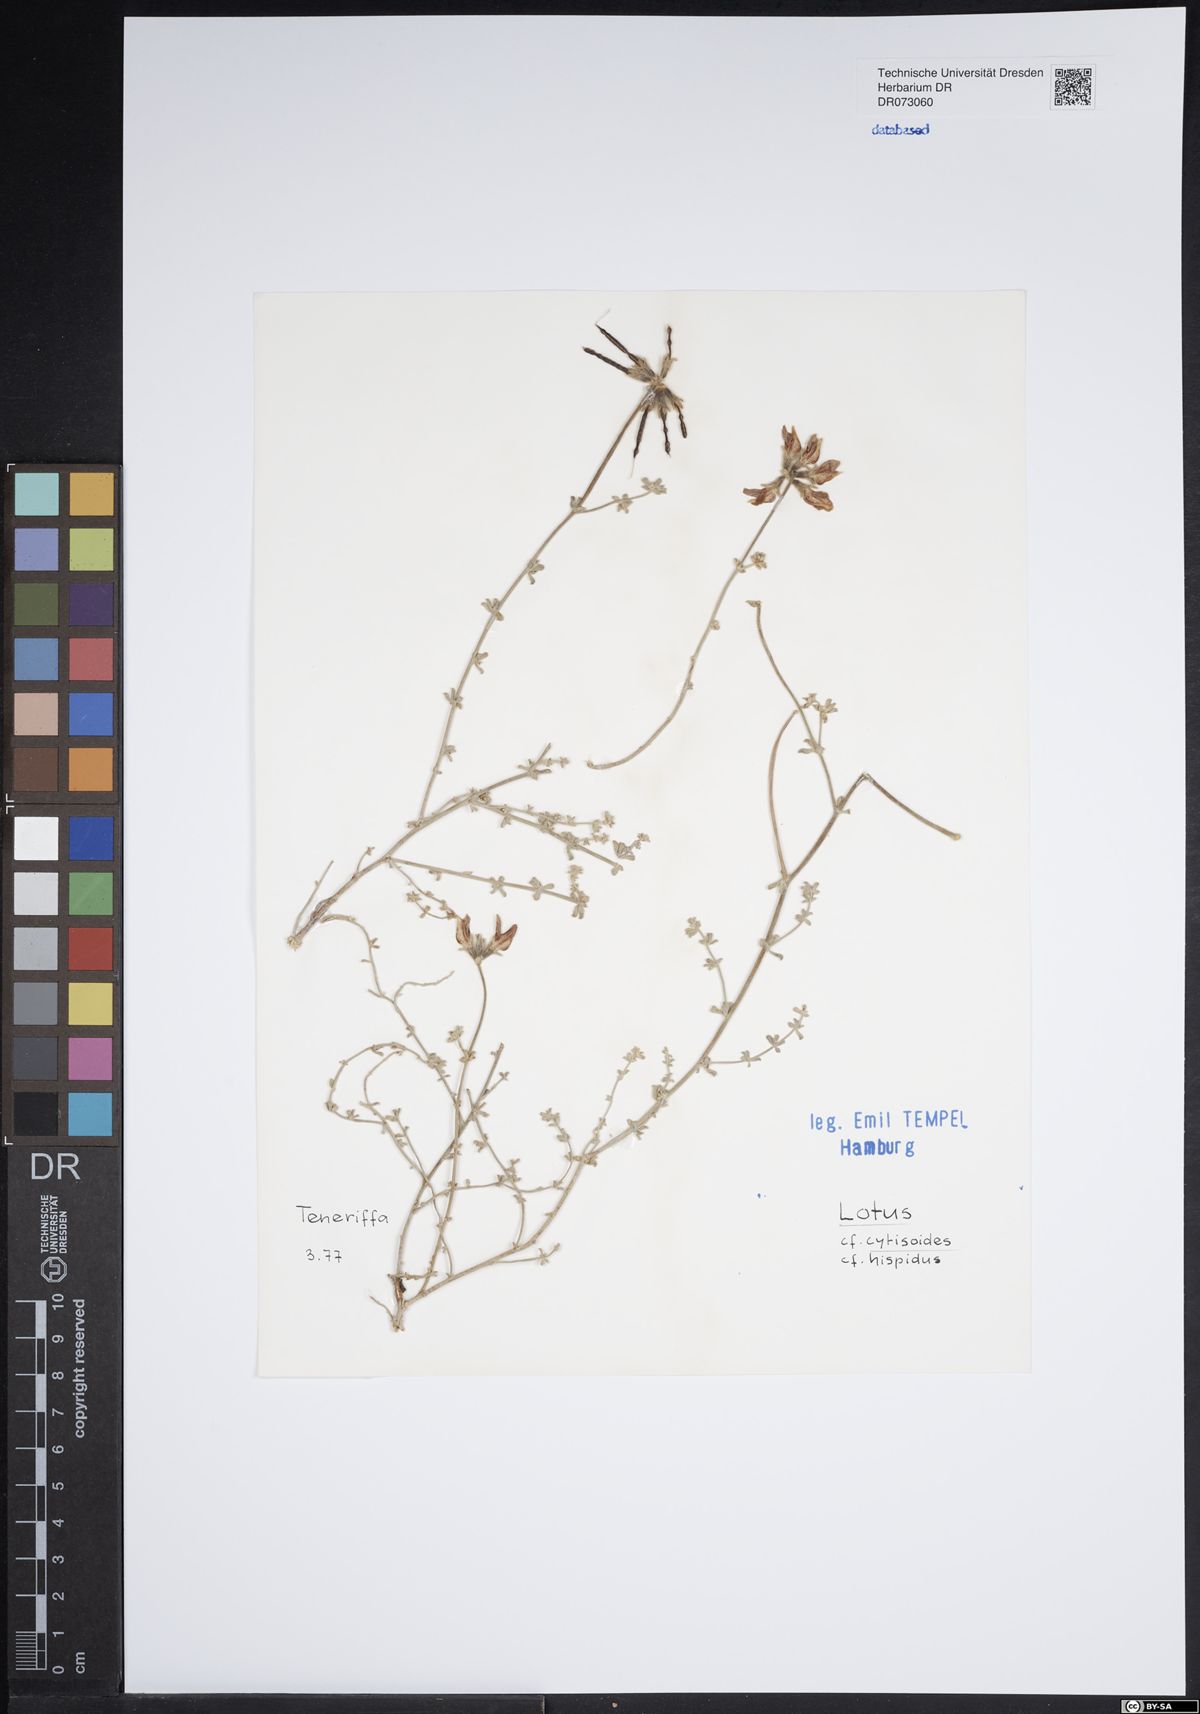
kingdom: Plantae
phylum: Tracheophyta
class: Magnoliopsida
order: Fabales
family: Fabaceae
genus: Lotus
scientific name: Lotus cytisoides
